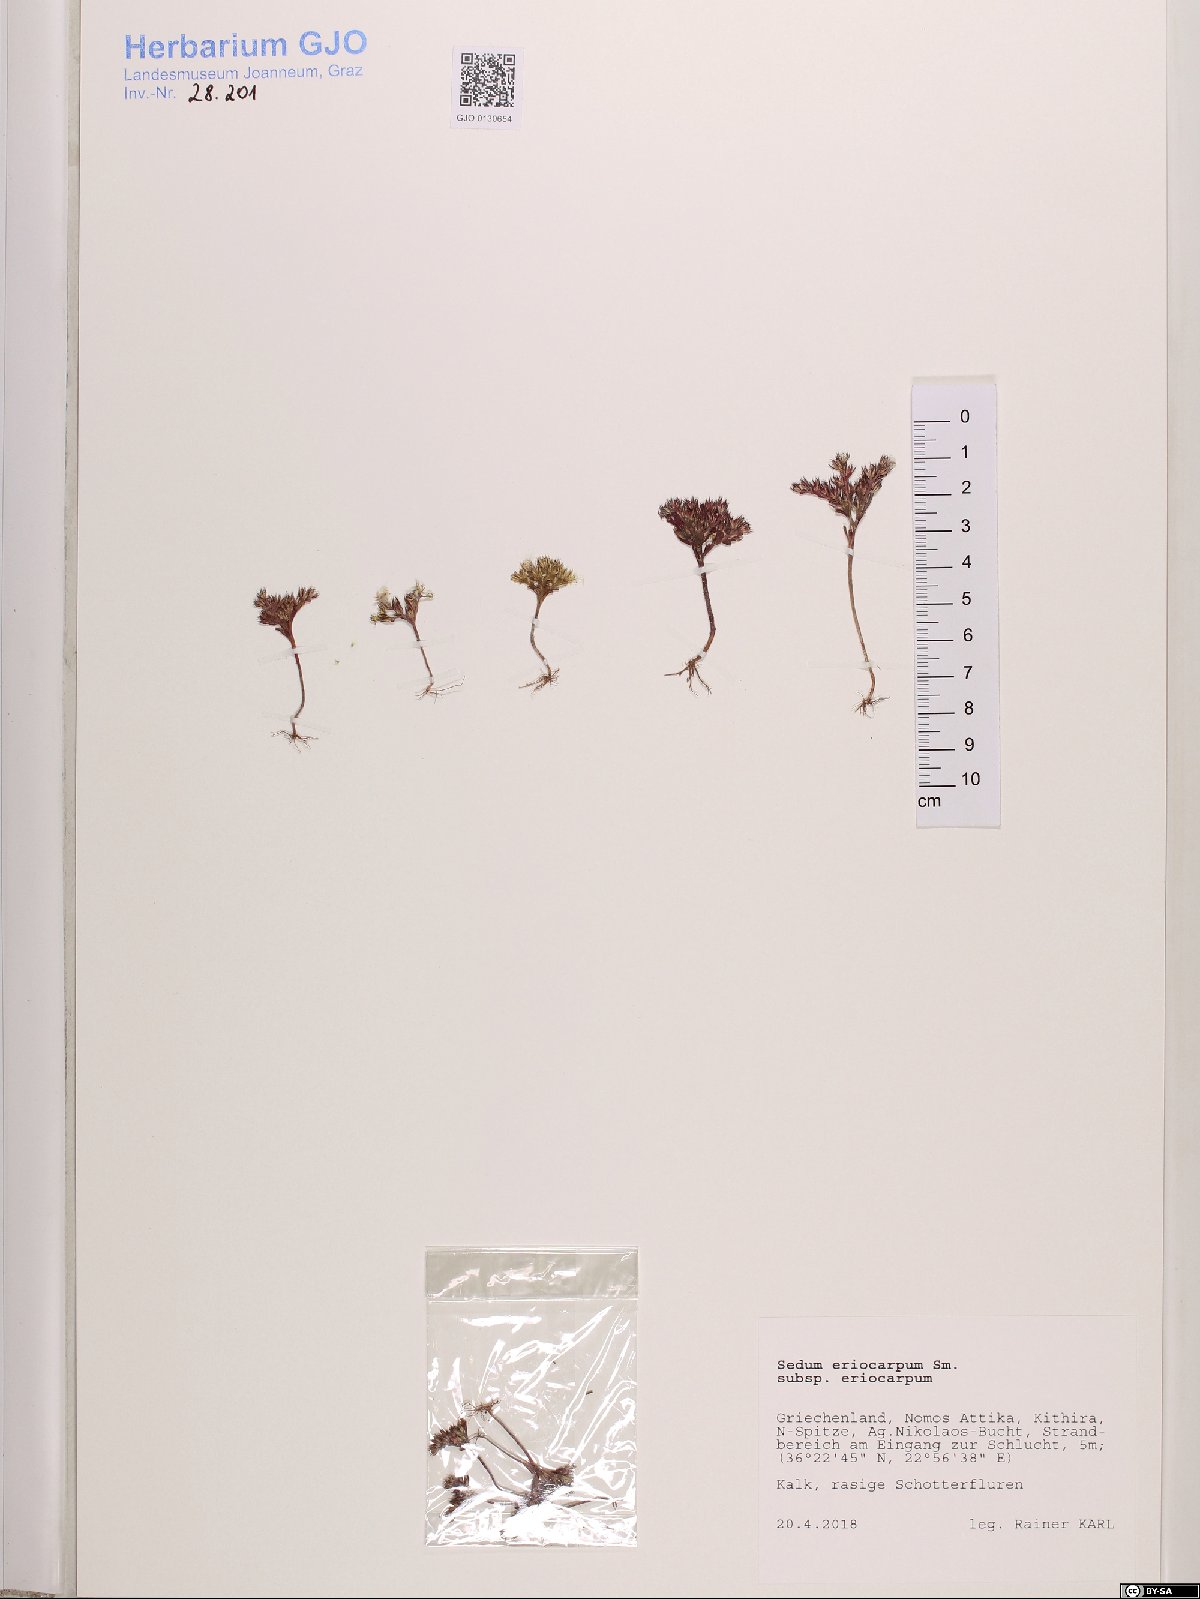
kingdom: Plantae
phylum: Tracheophyta
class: Magnoliopsida
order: Saxifragales
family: Crassulaceae
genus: Sedum
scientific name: Sedum eriocarpum
